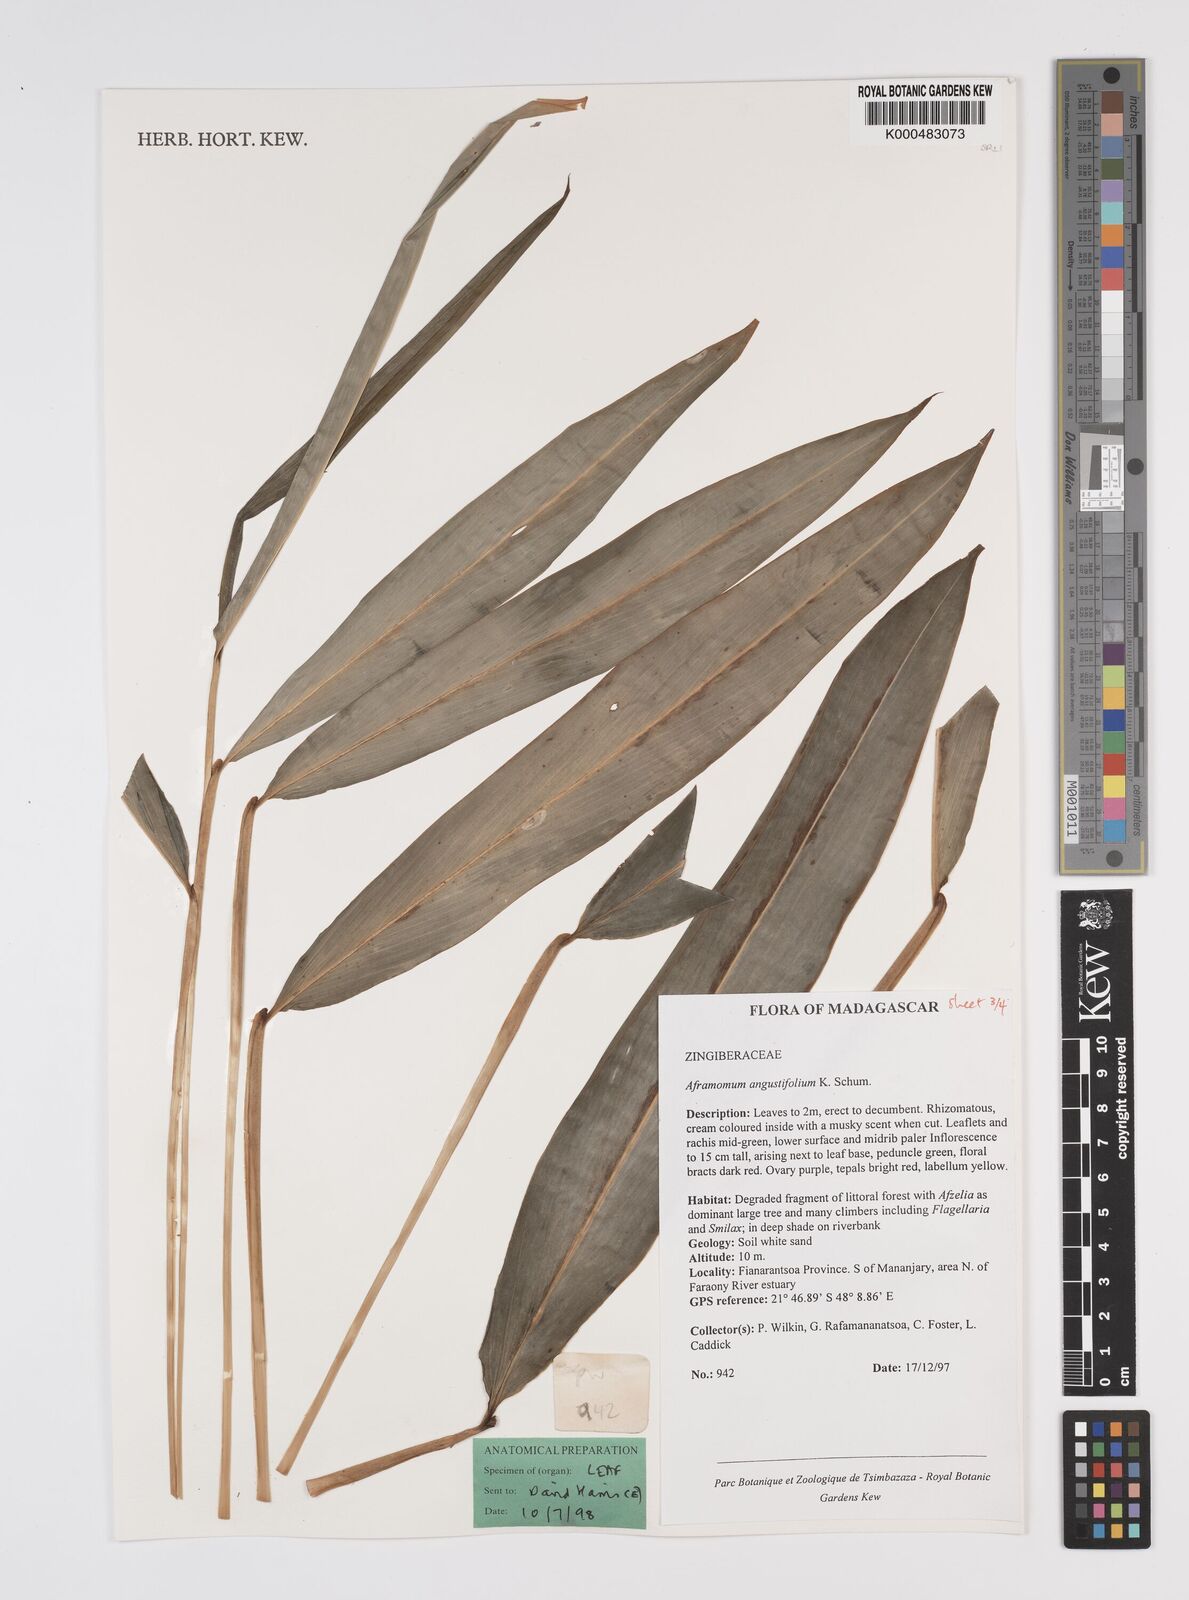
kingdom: Plantae
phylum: Tracheophyta
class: Liliopsida
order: Zingiberales
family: Zingiberaceae
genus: Aframomum
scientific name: Aframomum angustifolium
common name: Guinea grains
